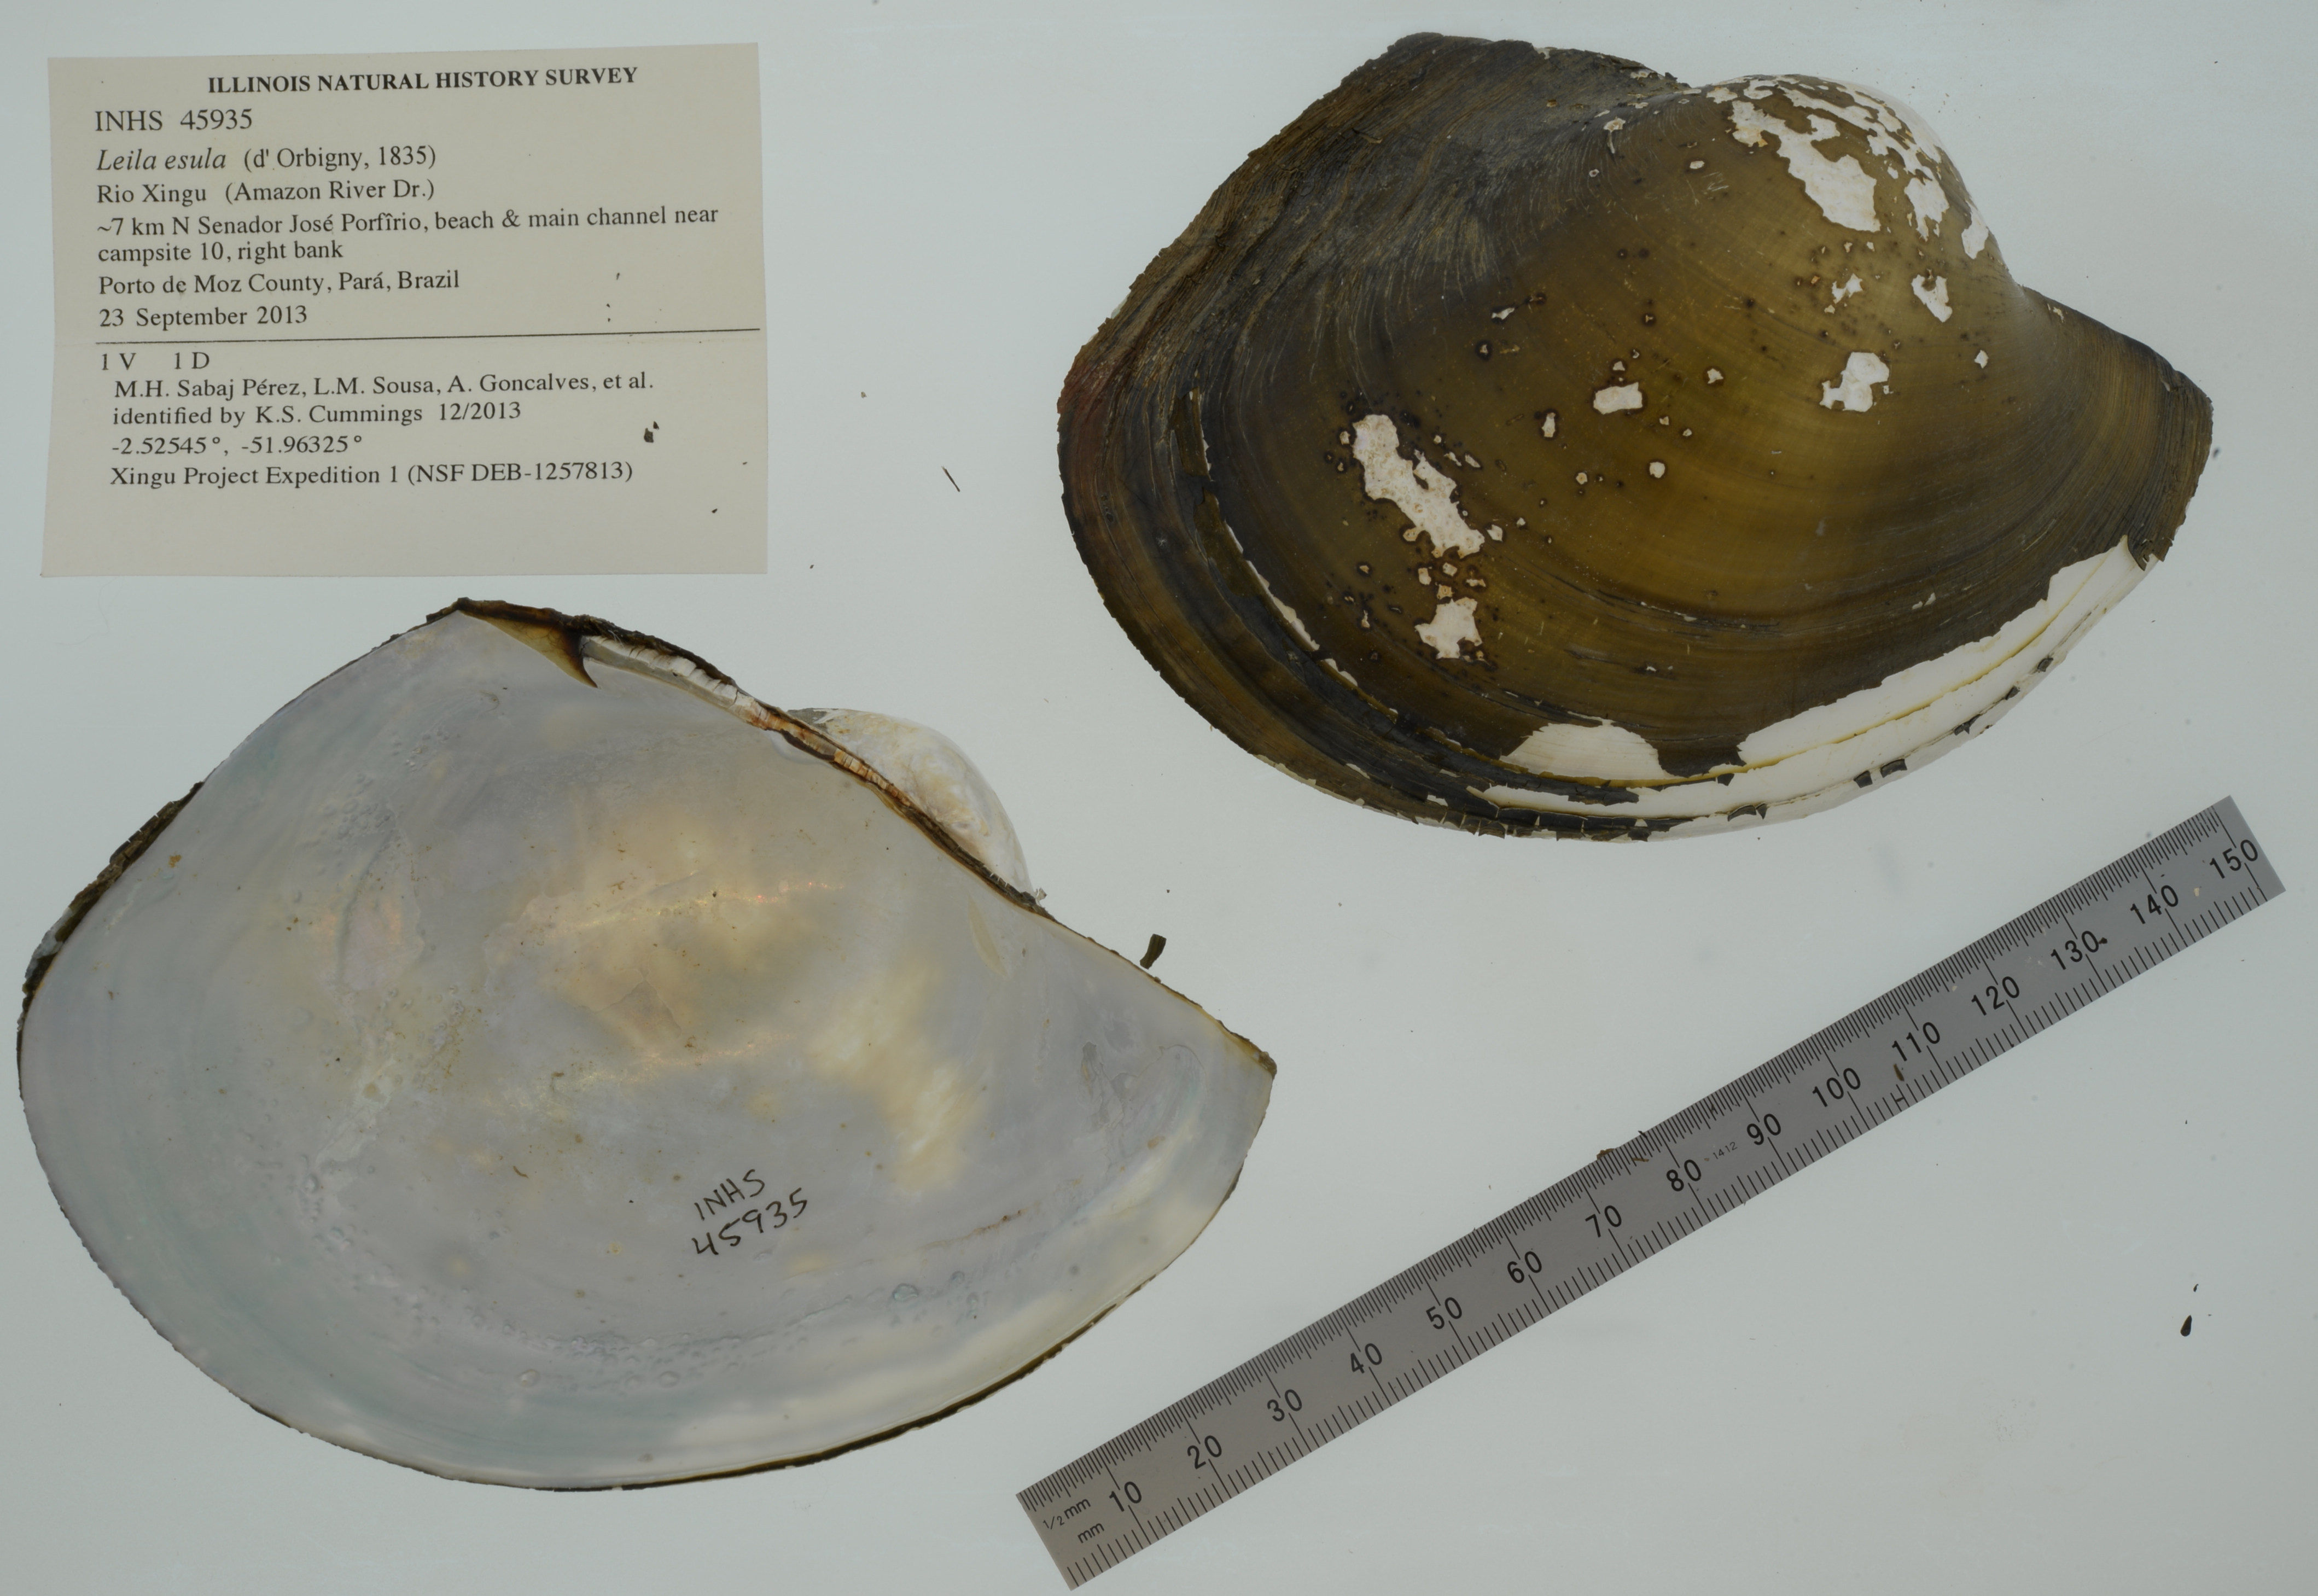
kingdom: Animalia
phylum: Mollusca
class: Bivalvia
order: Unionida
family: Mycetopodidae
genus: Leila
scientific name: Leila esula
